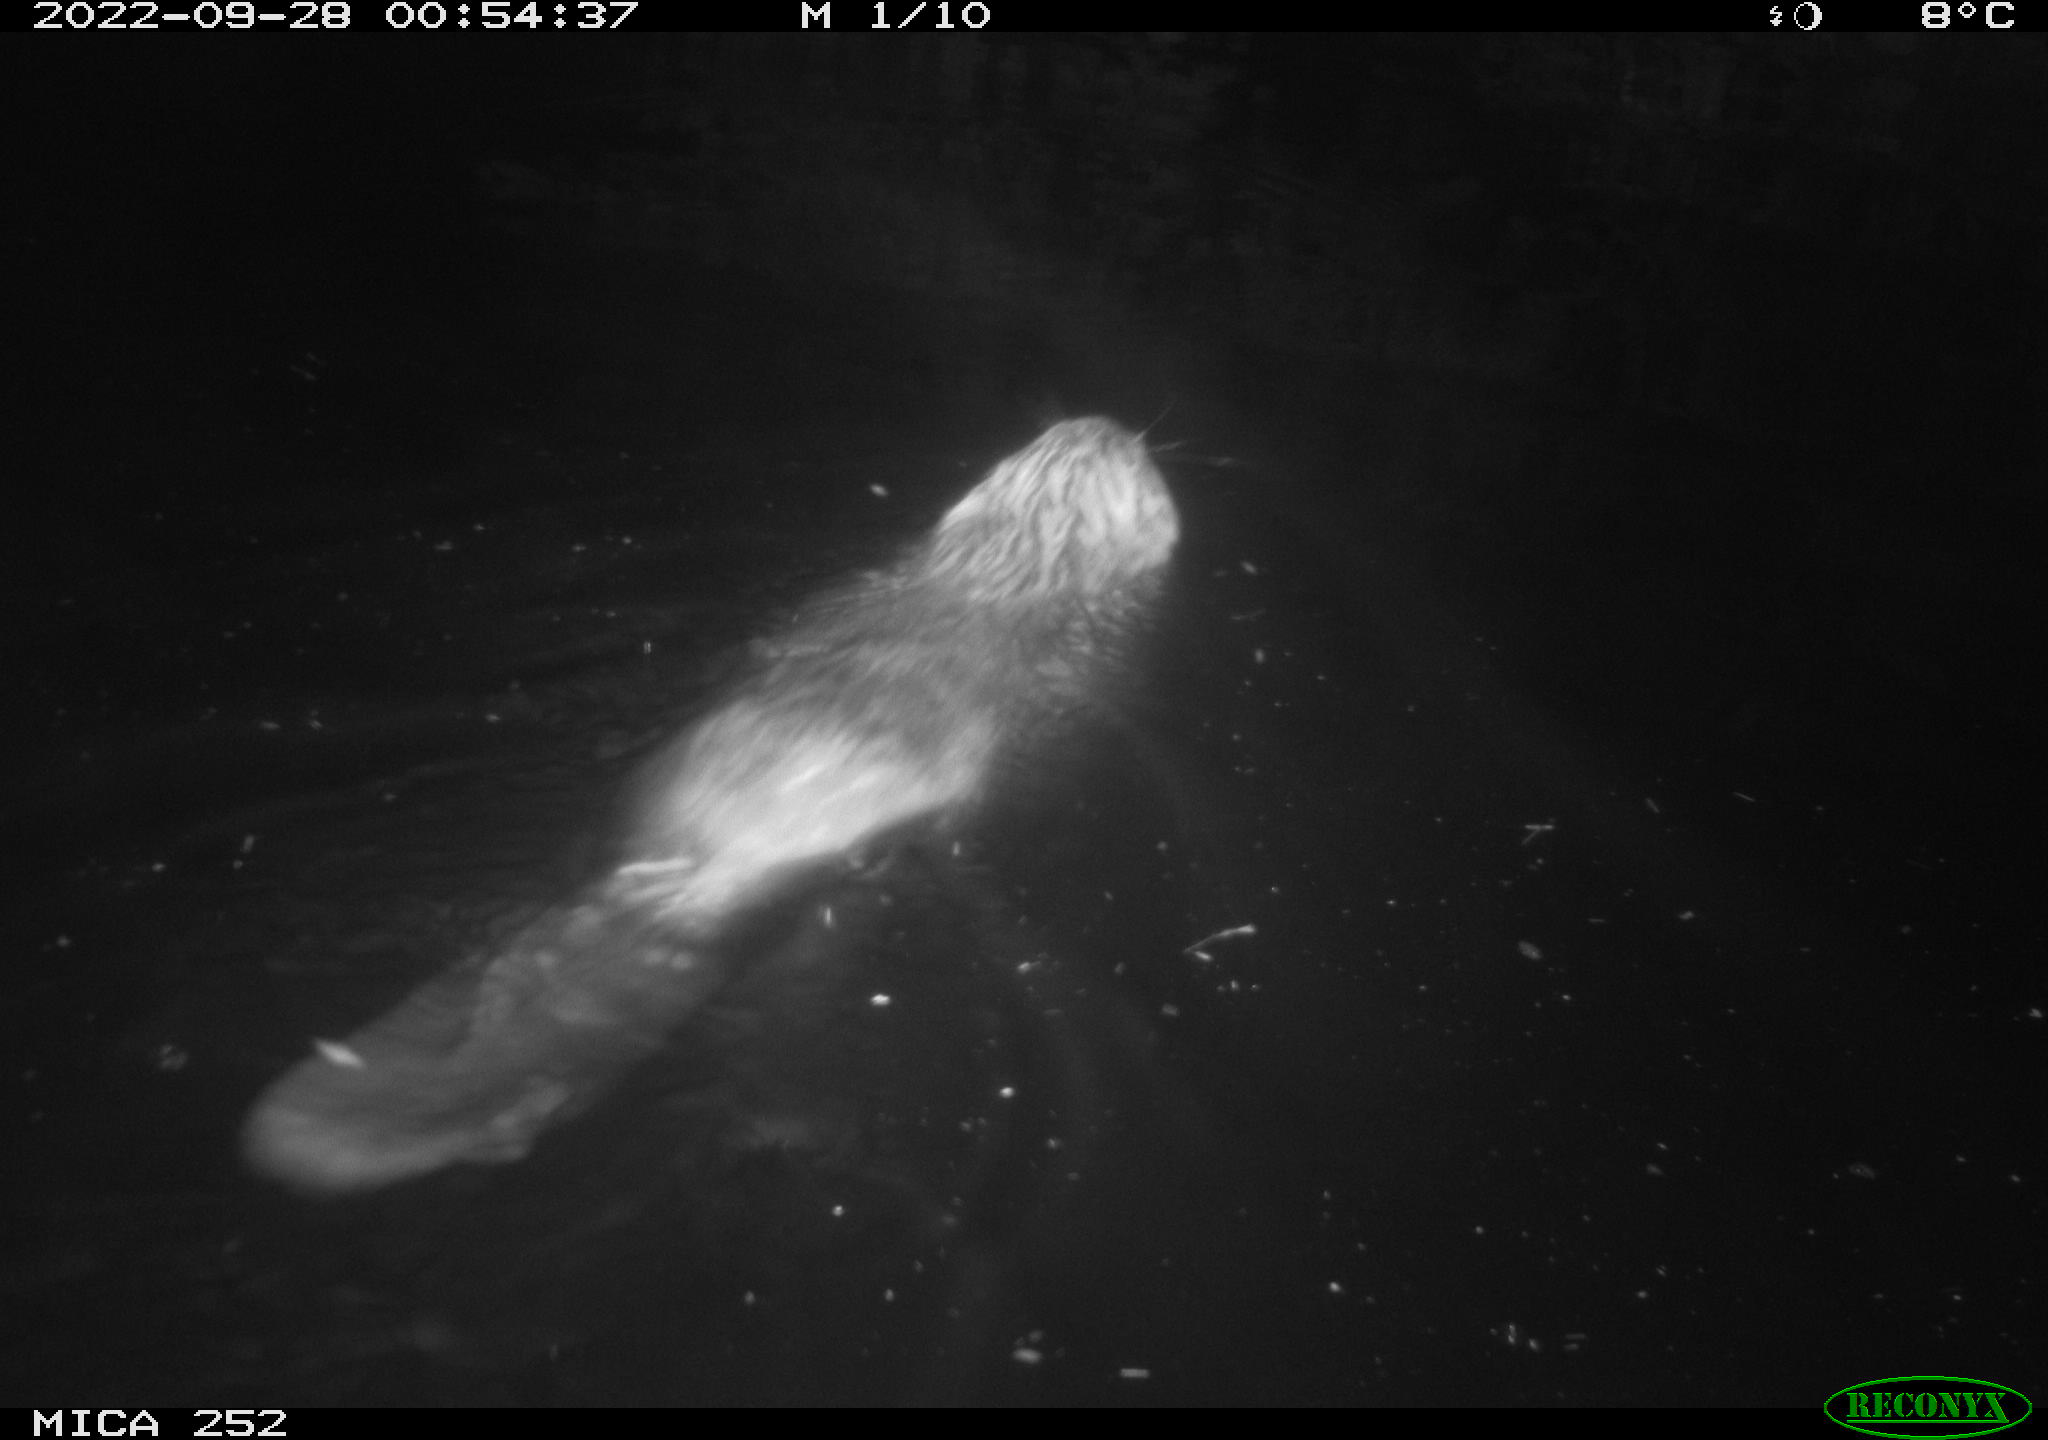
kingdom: Animalia
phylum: Chordata
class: Mammalia
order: Rodentia
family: Castoridae
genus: Castor
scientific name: Castor fiber
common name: Eurasian beaver
